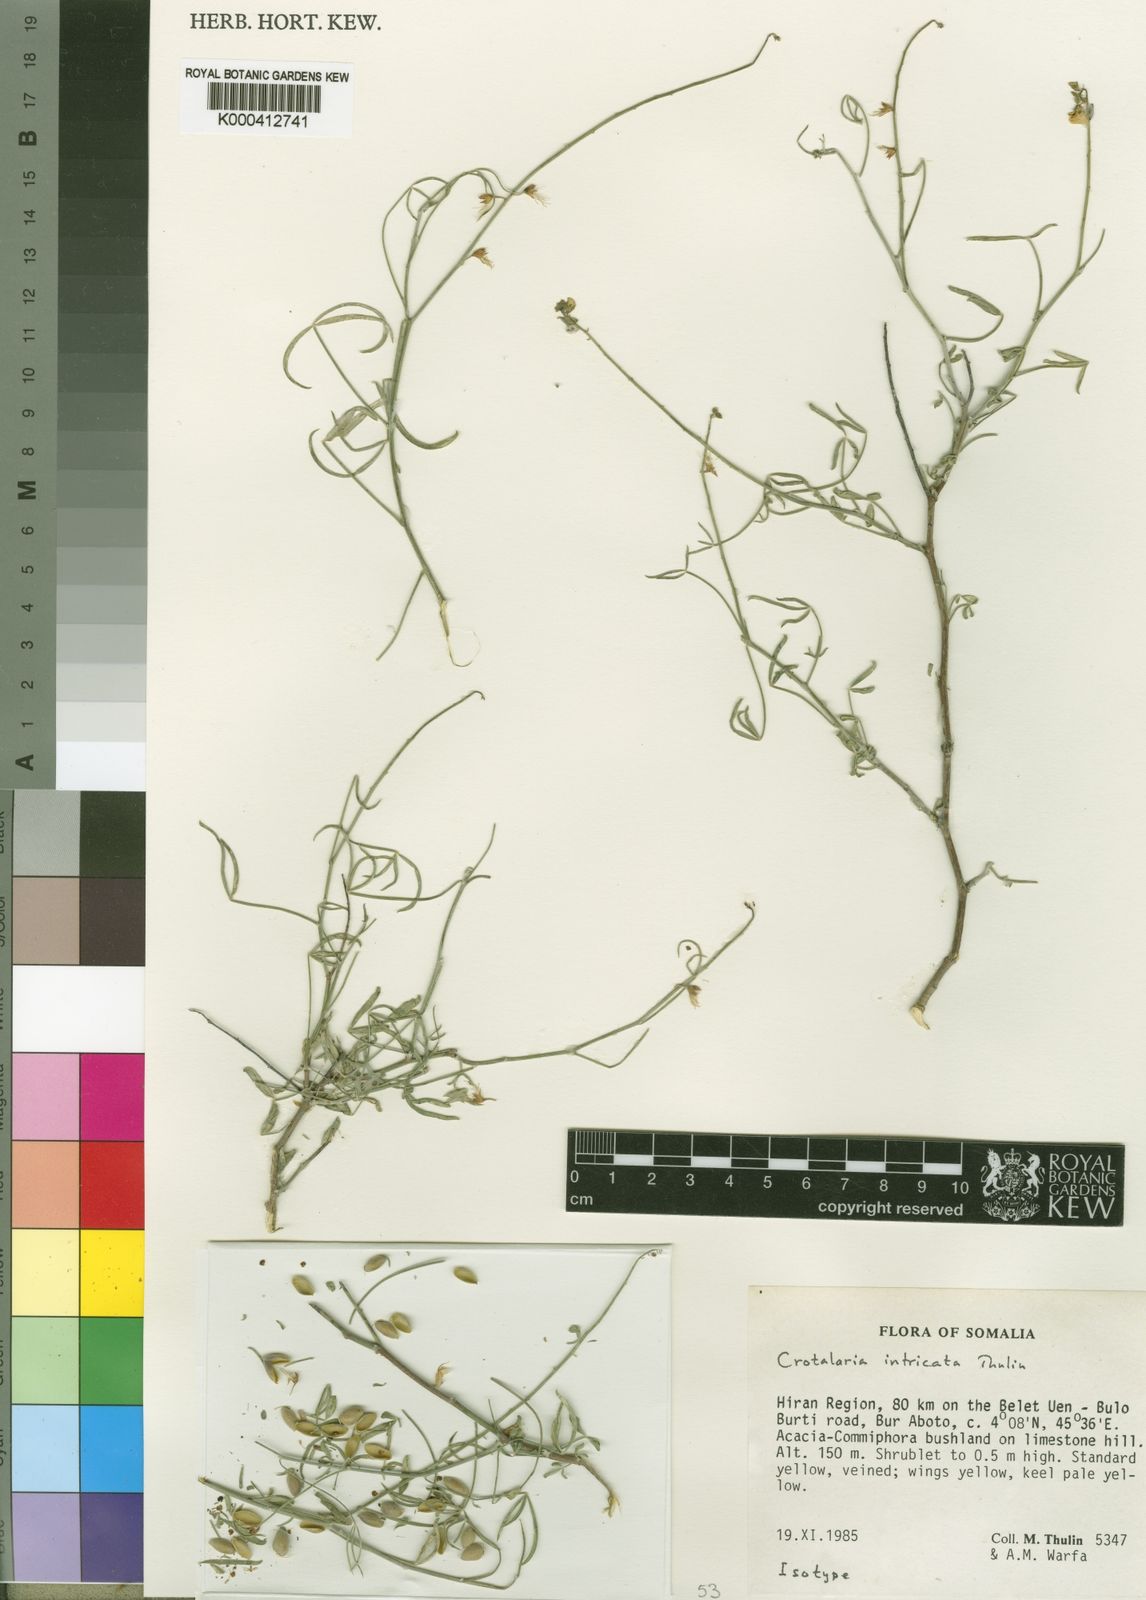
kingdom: Plantae
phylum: Tracheophyta
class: Magnoliopsida
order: Fabales
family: Fabaceae
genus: Crotalaria
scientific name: Crotalaria intricata
